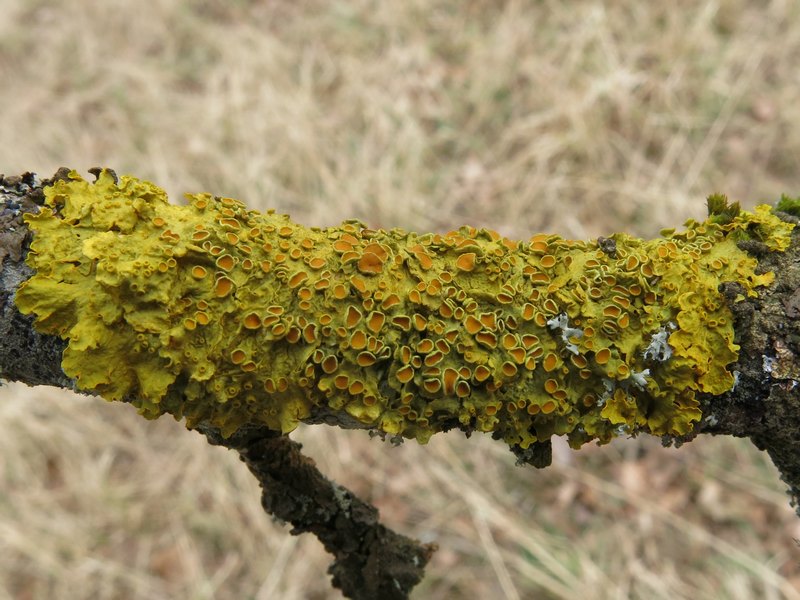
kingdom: Fungi
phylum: Ascomycota
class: Lecanoromycetes
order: Teloschistales
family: Teloschistaceae
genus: Xanthoria
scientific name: Xanthoria parietina
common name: almindelig væggelav
